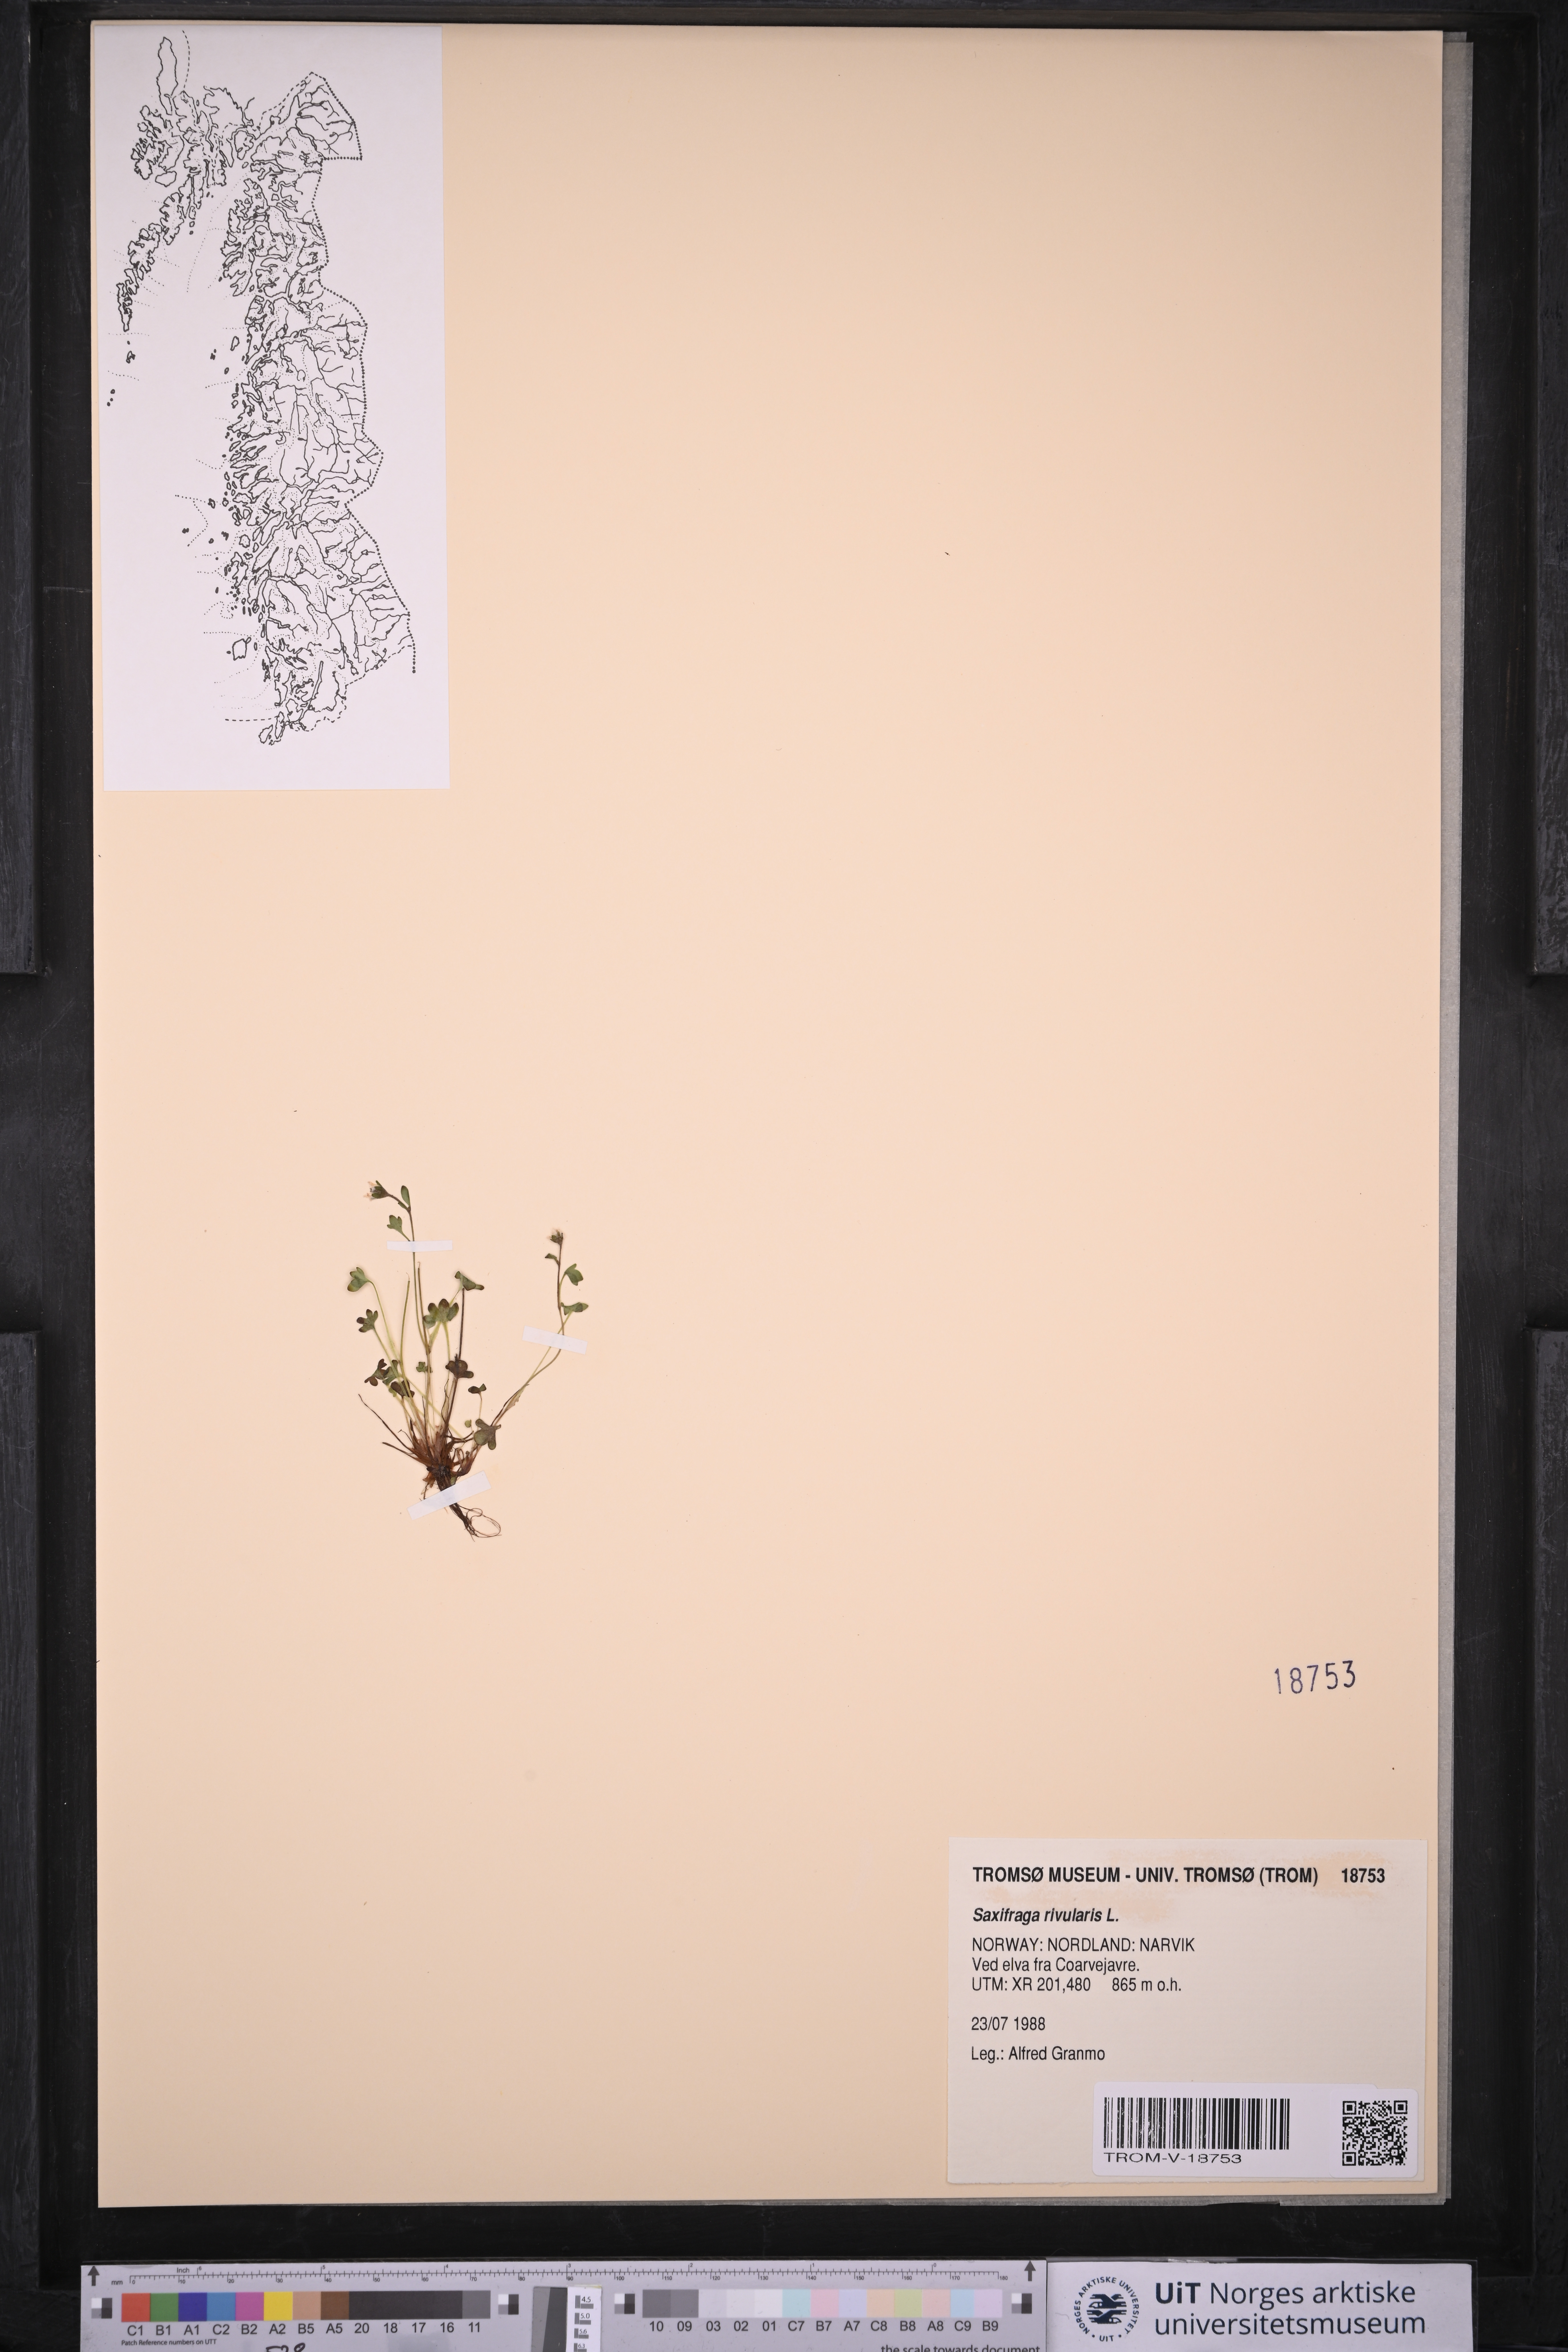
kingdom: Plantae
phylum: Tracheophyta
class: Magnoliopsida
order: Saxifragales
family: Saxifragaceae
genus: Saxifraga
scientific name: Saxifraga rivularis
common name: Highland saxifrage
